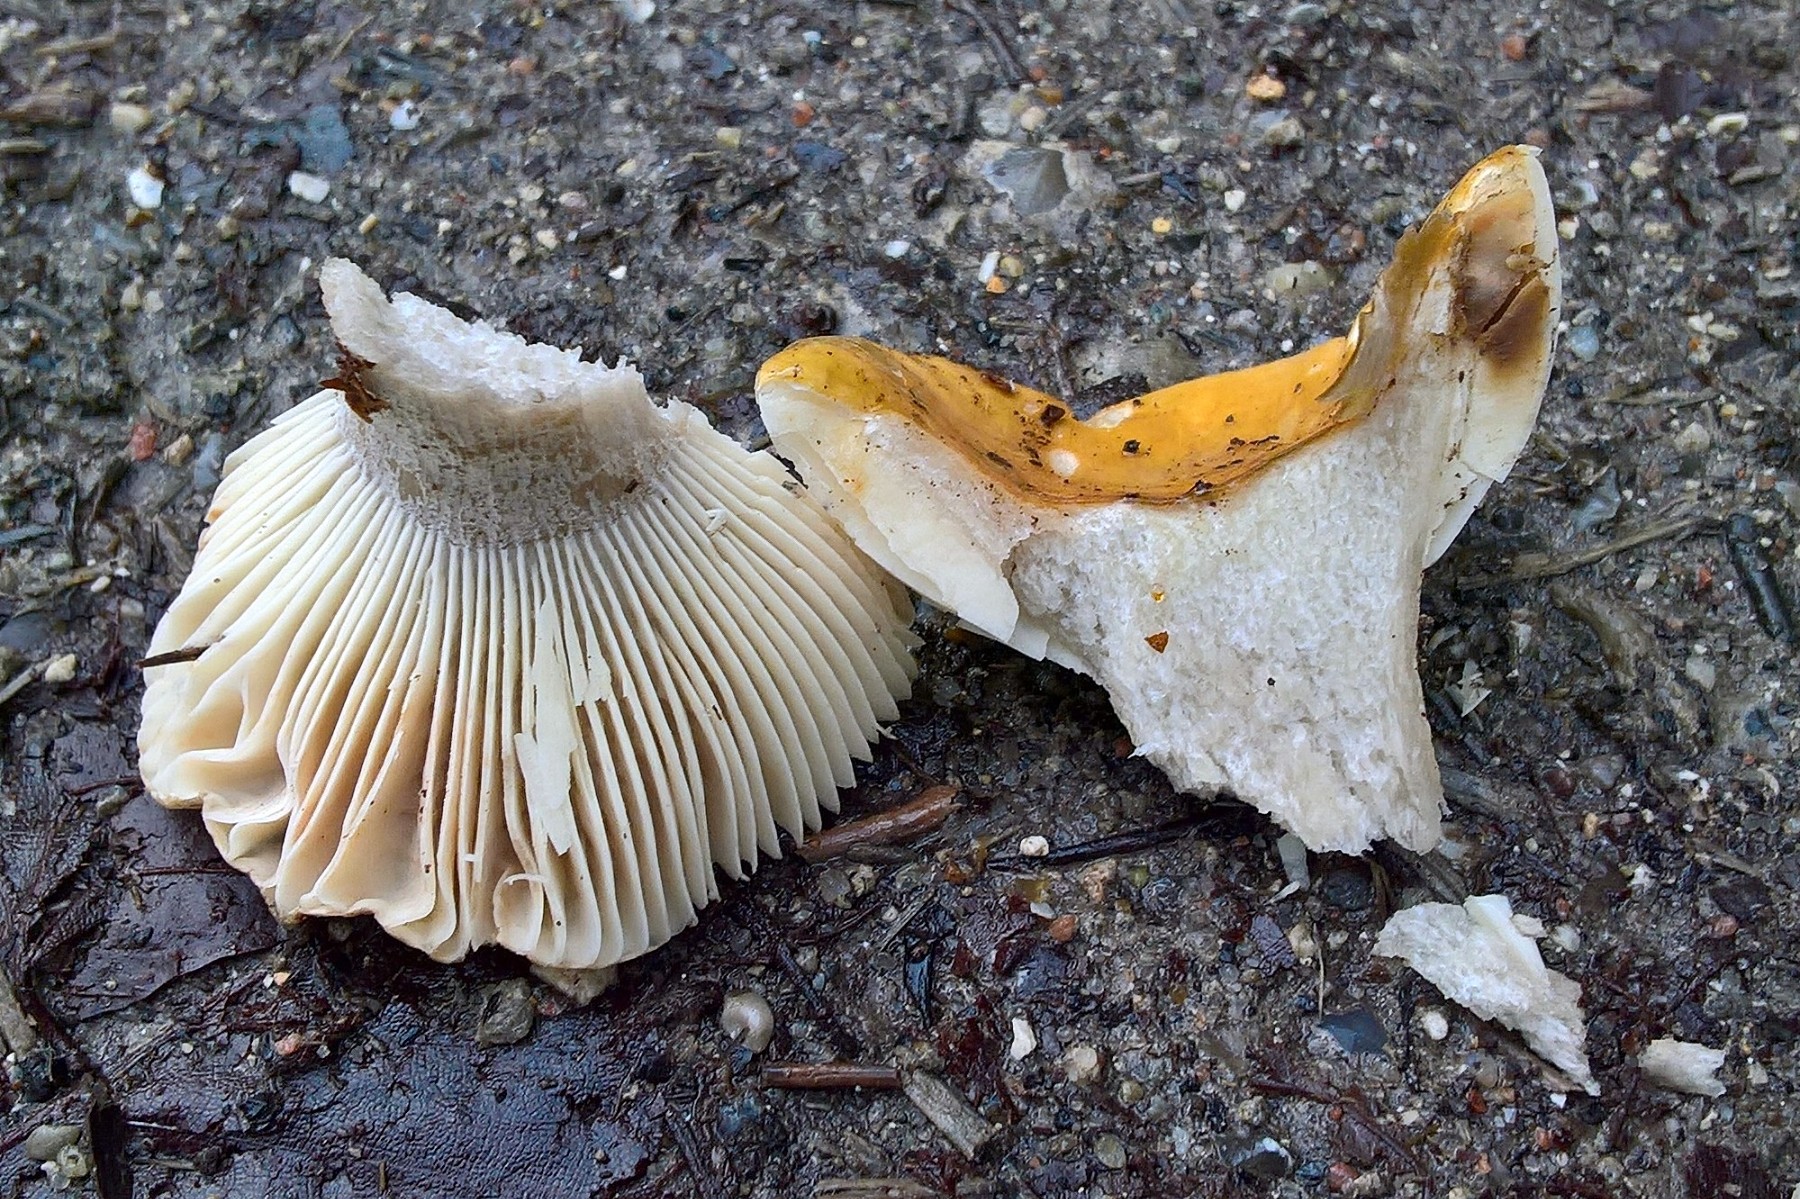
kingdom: Fungi
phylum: Basidiomycota
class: Agaricomycetes
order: Russulales
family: Russulaceae
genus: Russula
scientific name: Russula ochroleuca
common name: okkergul skørhat
